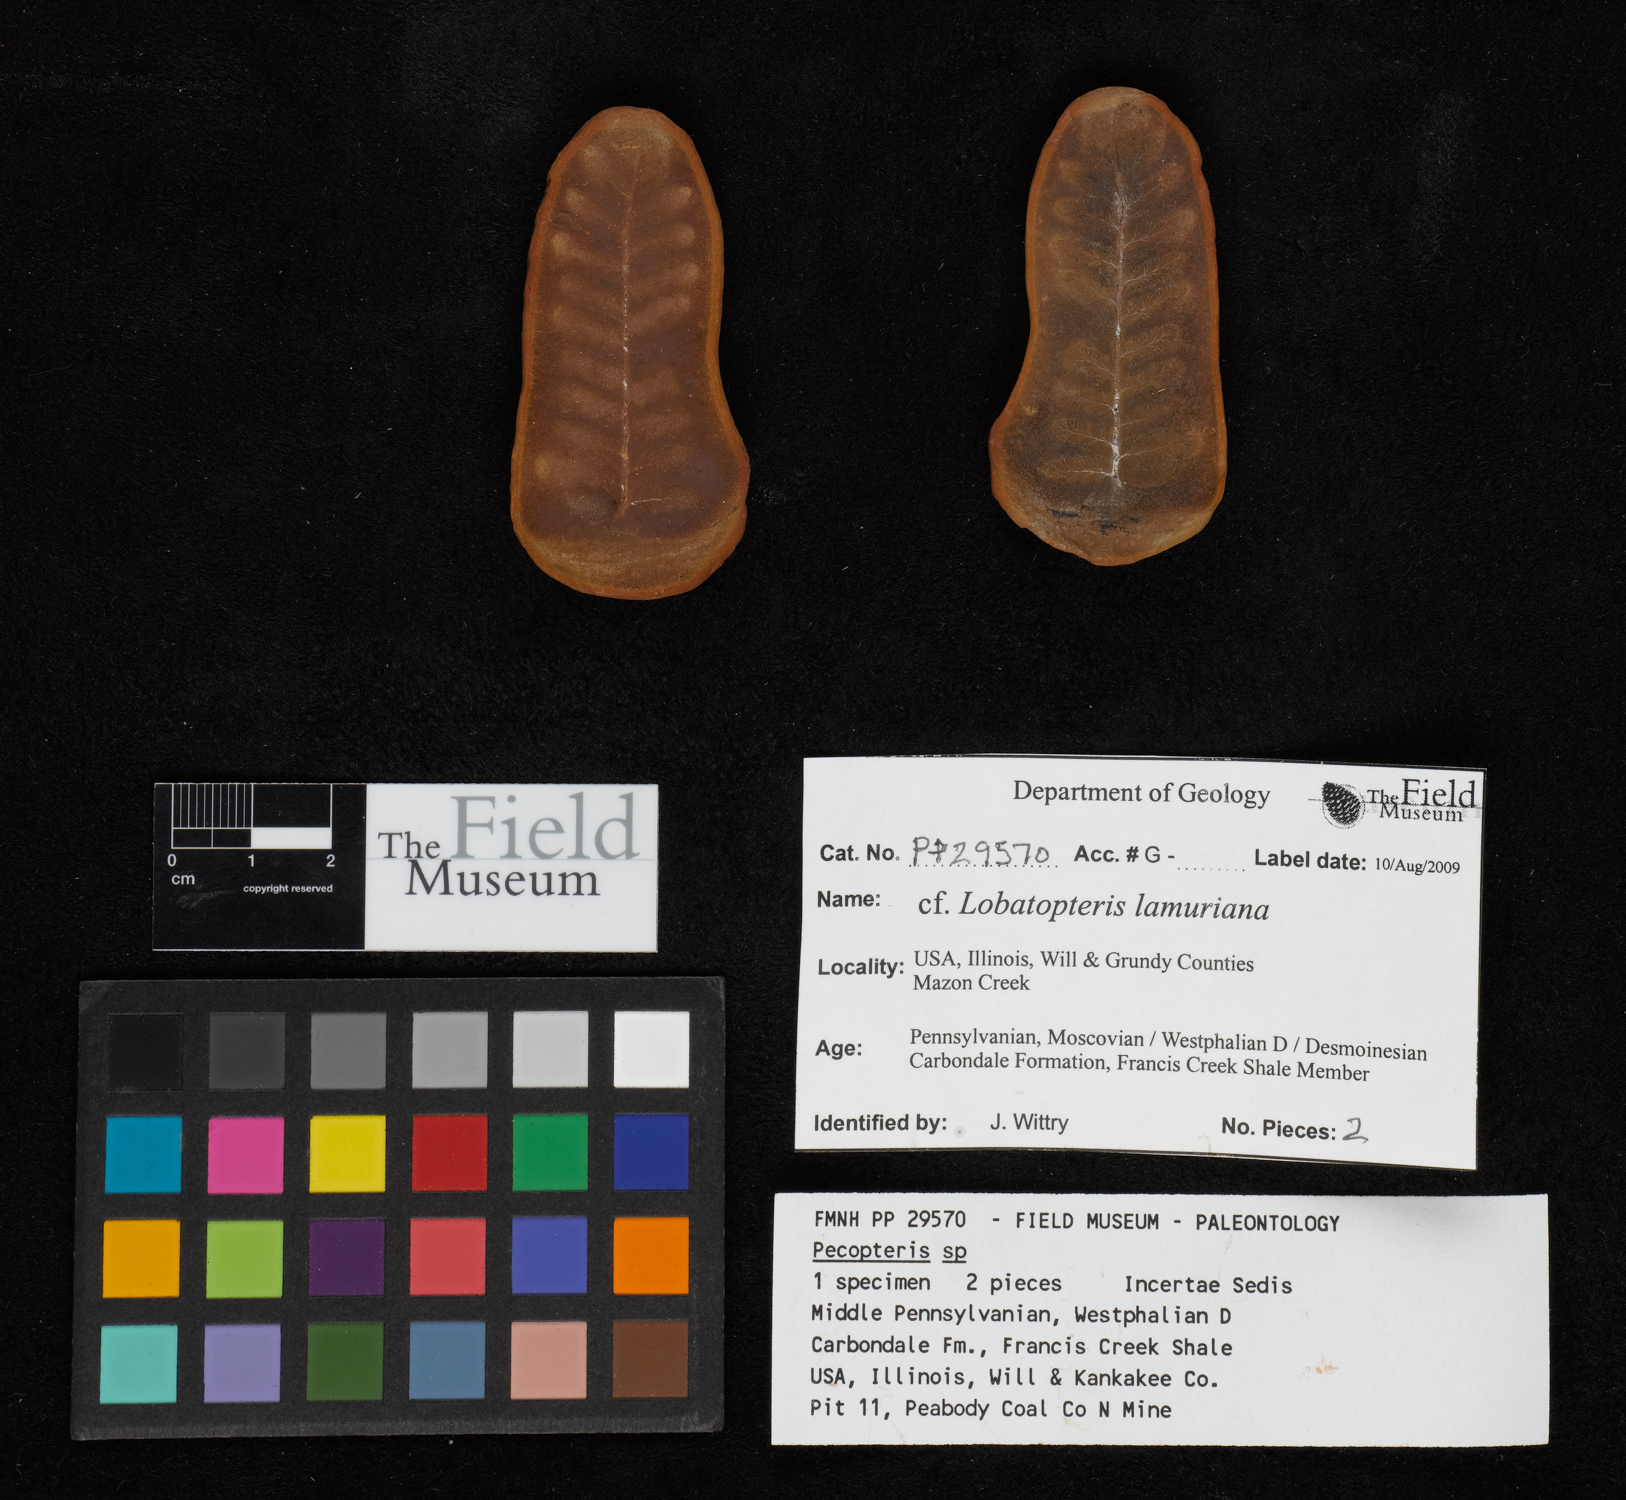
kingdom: Plantae
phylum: Tracheophyta
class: Polypodiopsida
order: Marattiales
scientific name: Marattiales
